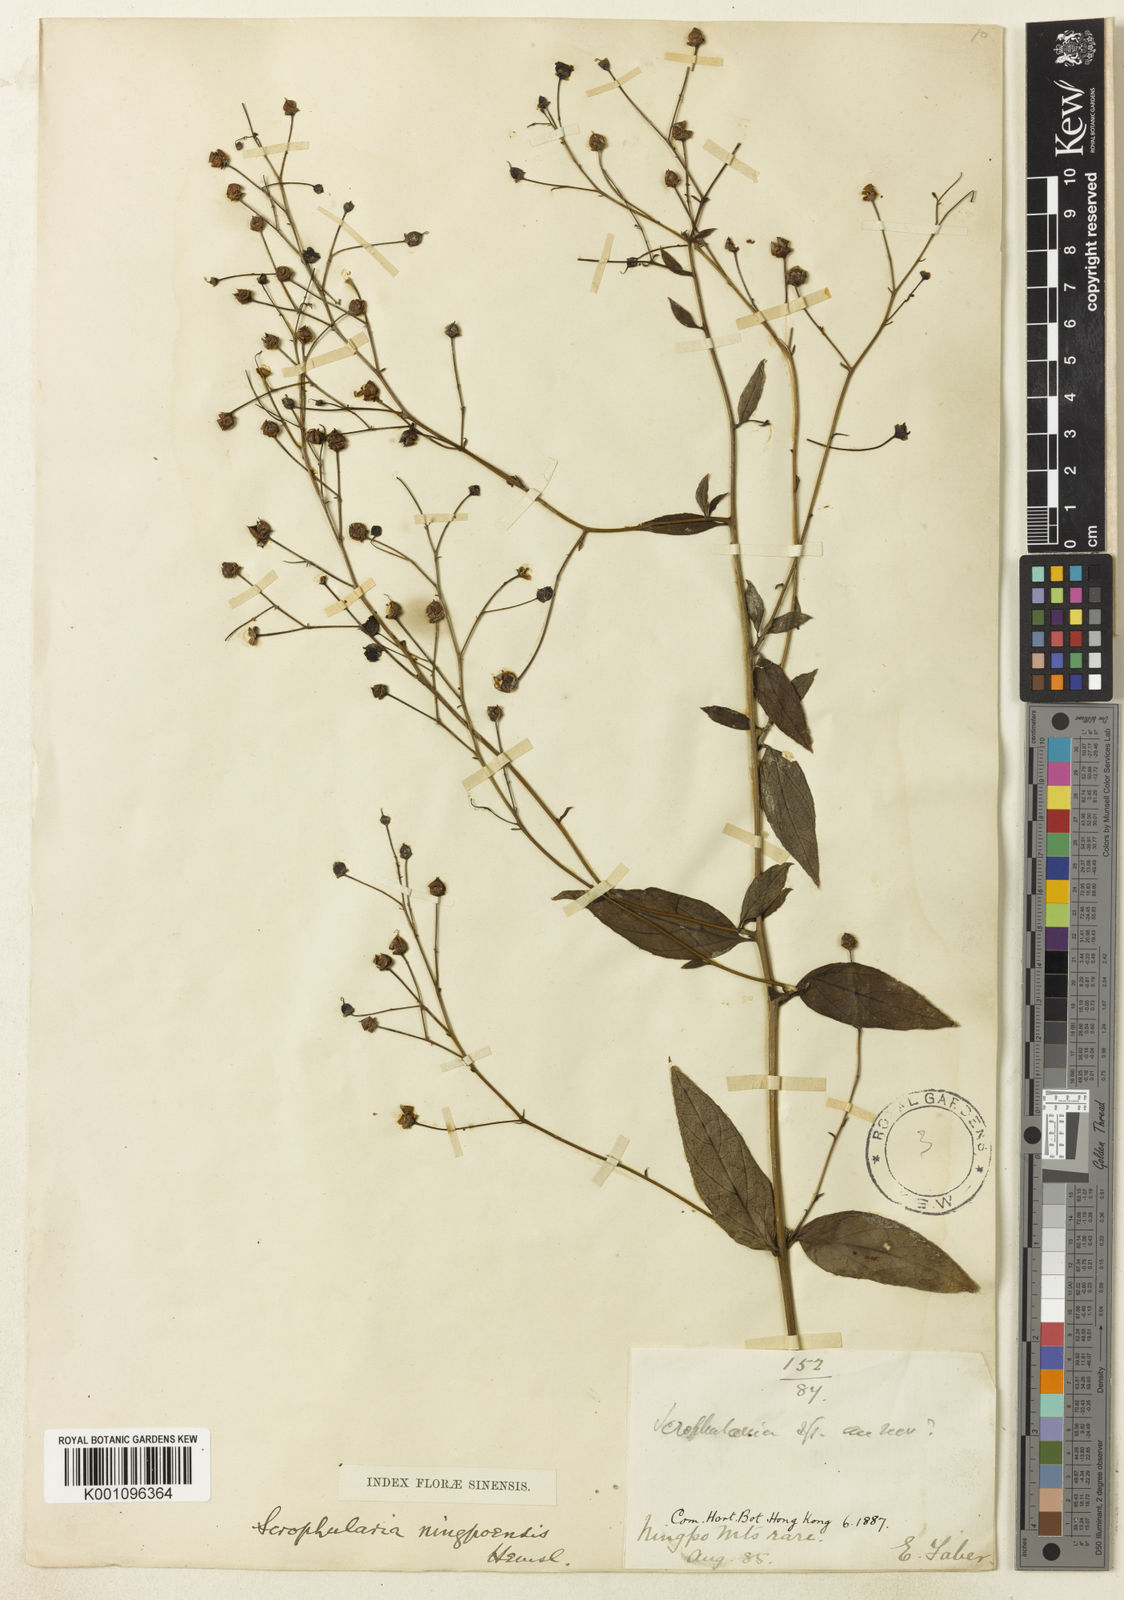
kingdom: Plantae
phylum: Tracheophyta
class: Magnoliopsida
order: Lamiales
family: Scrophulariaceae
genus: Scrophularia
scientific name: Scrophularia ningpoensis
